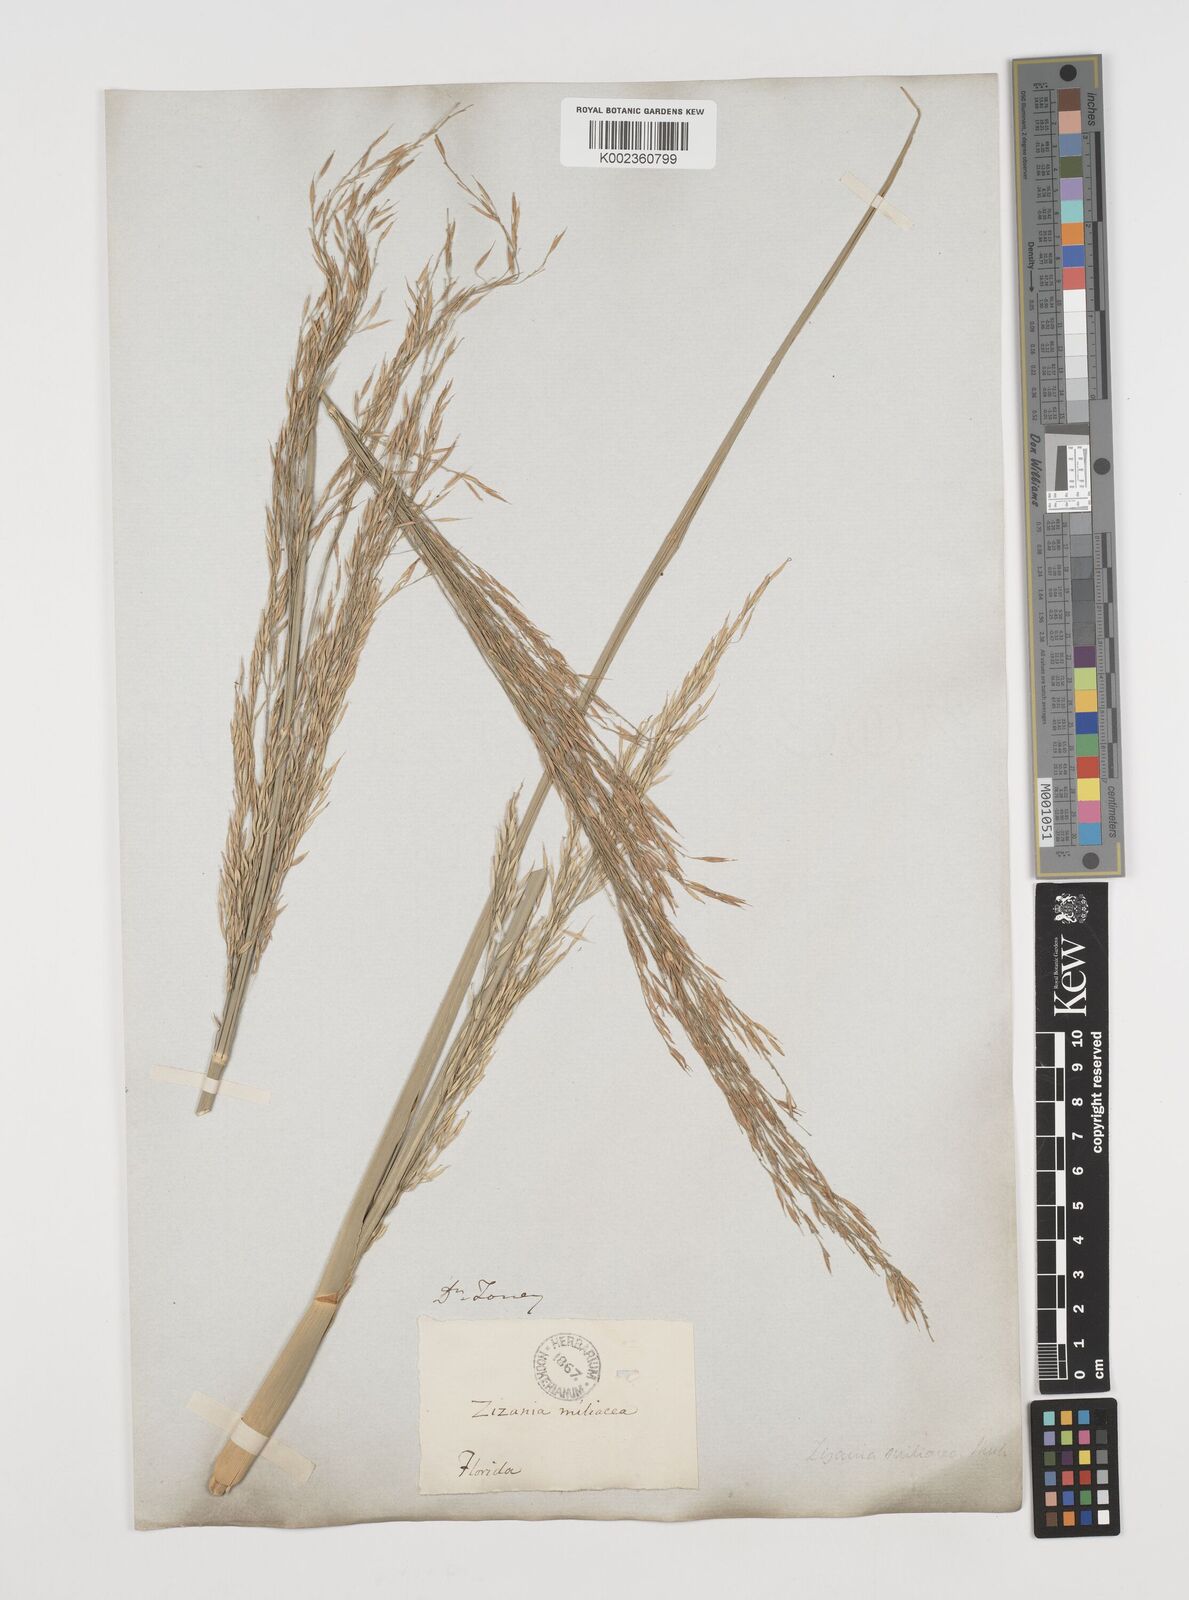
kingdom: Plantae
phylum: Tracheophyta
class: Liliopsida
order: Poales
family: Poaceae
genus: Zizaniopsis
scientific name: Zizaniopsis miliacea
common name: Giant-cutgrass
